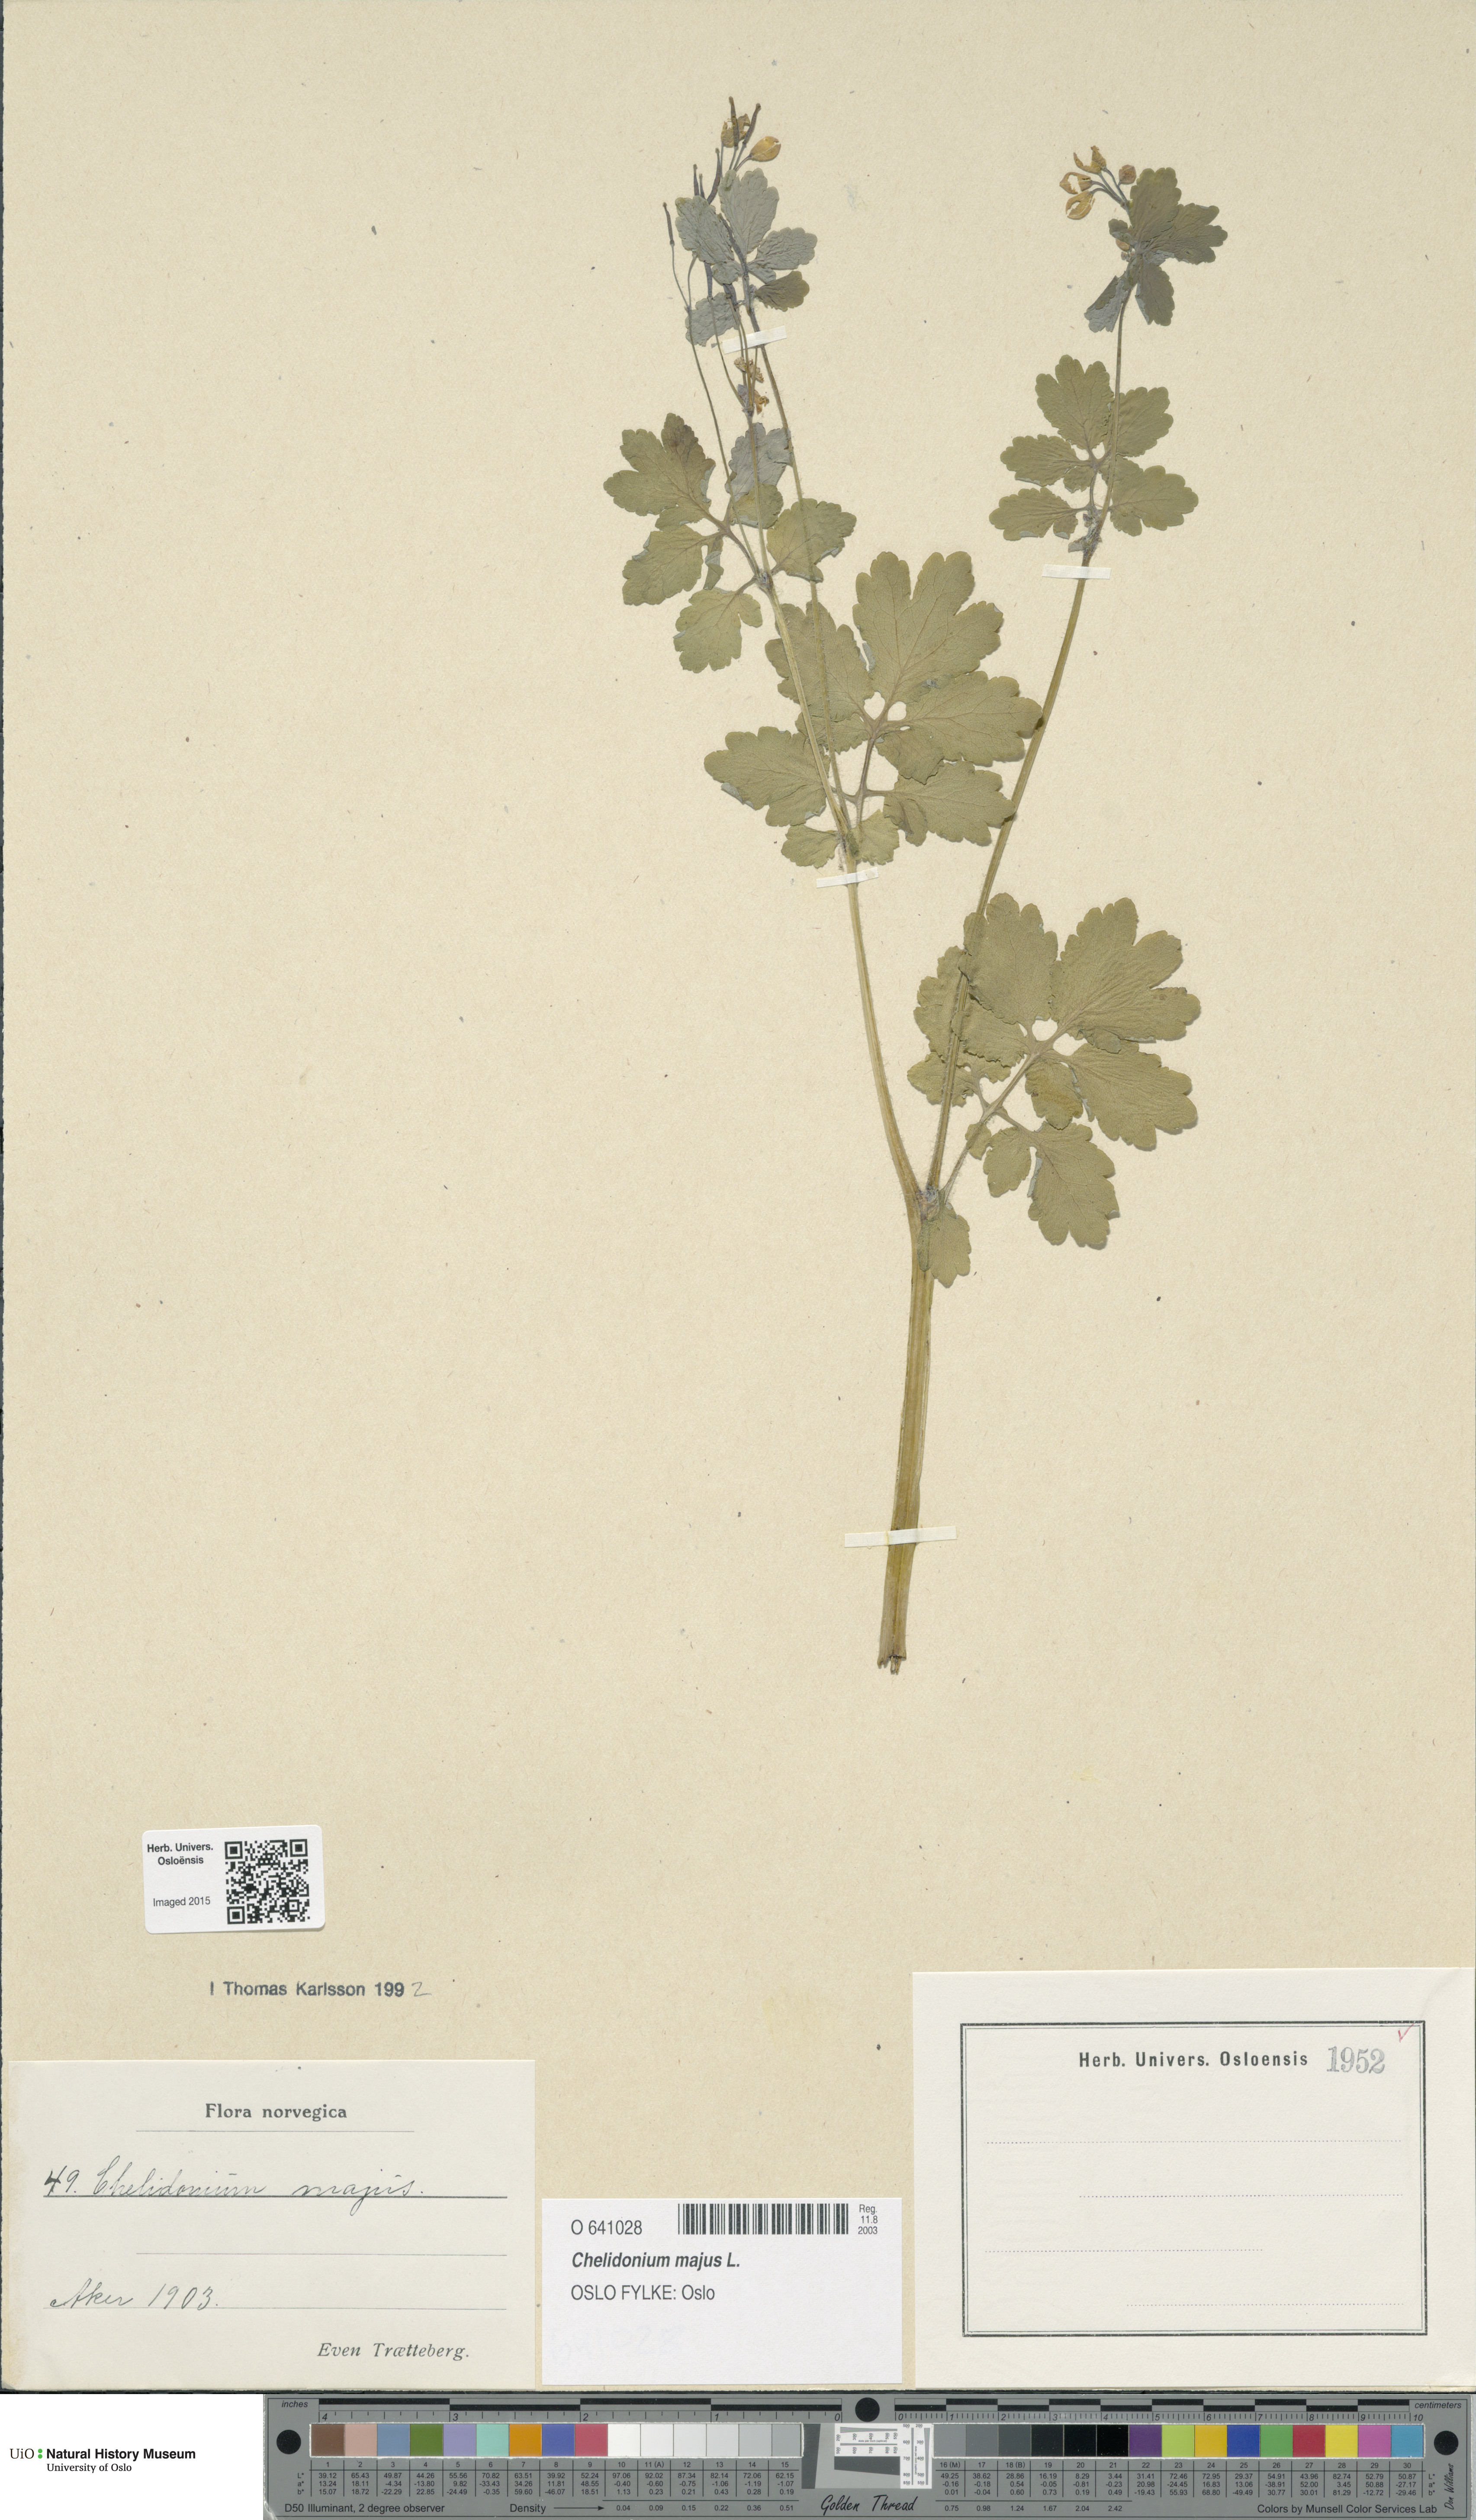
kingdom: Plantae
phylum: Tracheophyta
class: Magnoliopsida
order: Ranunculales
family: Papaveraceae
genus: Chelidonium
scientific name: Chelidonium majus
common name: Greater celandine
